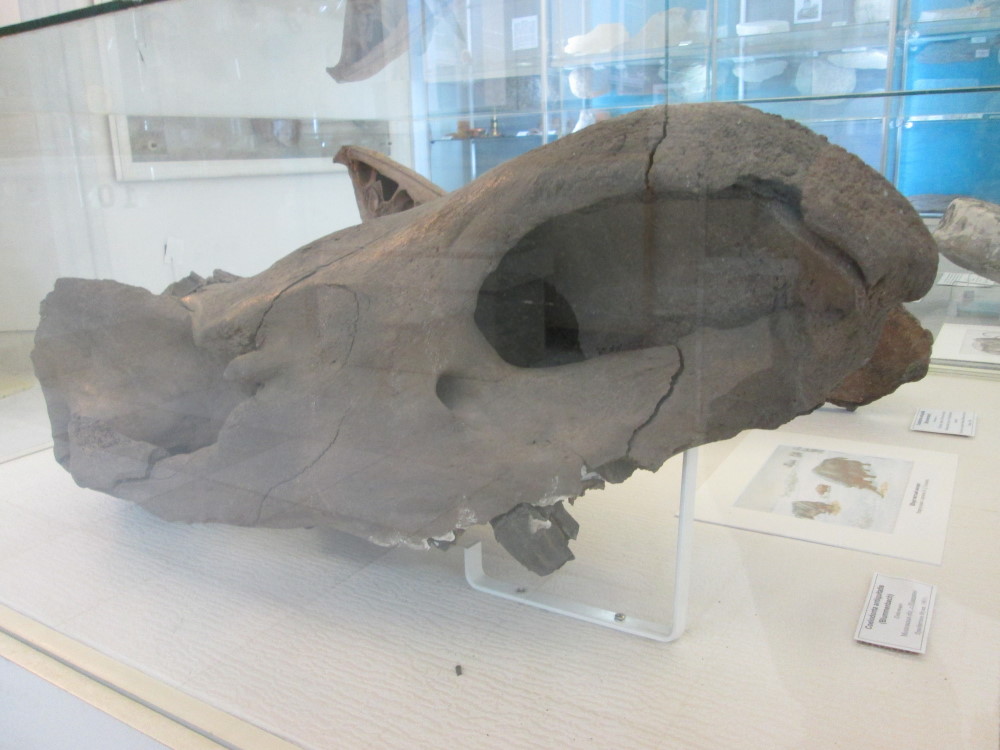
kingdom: Animalia
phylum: Chordata
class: Mammalia
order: Perissodactyla
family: Rhinocerotidae
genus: Coelodonta
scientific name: Coelodonta antiquitatis
